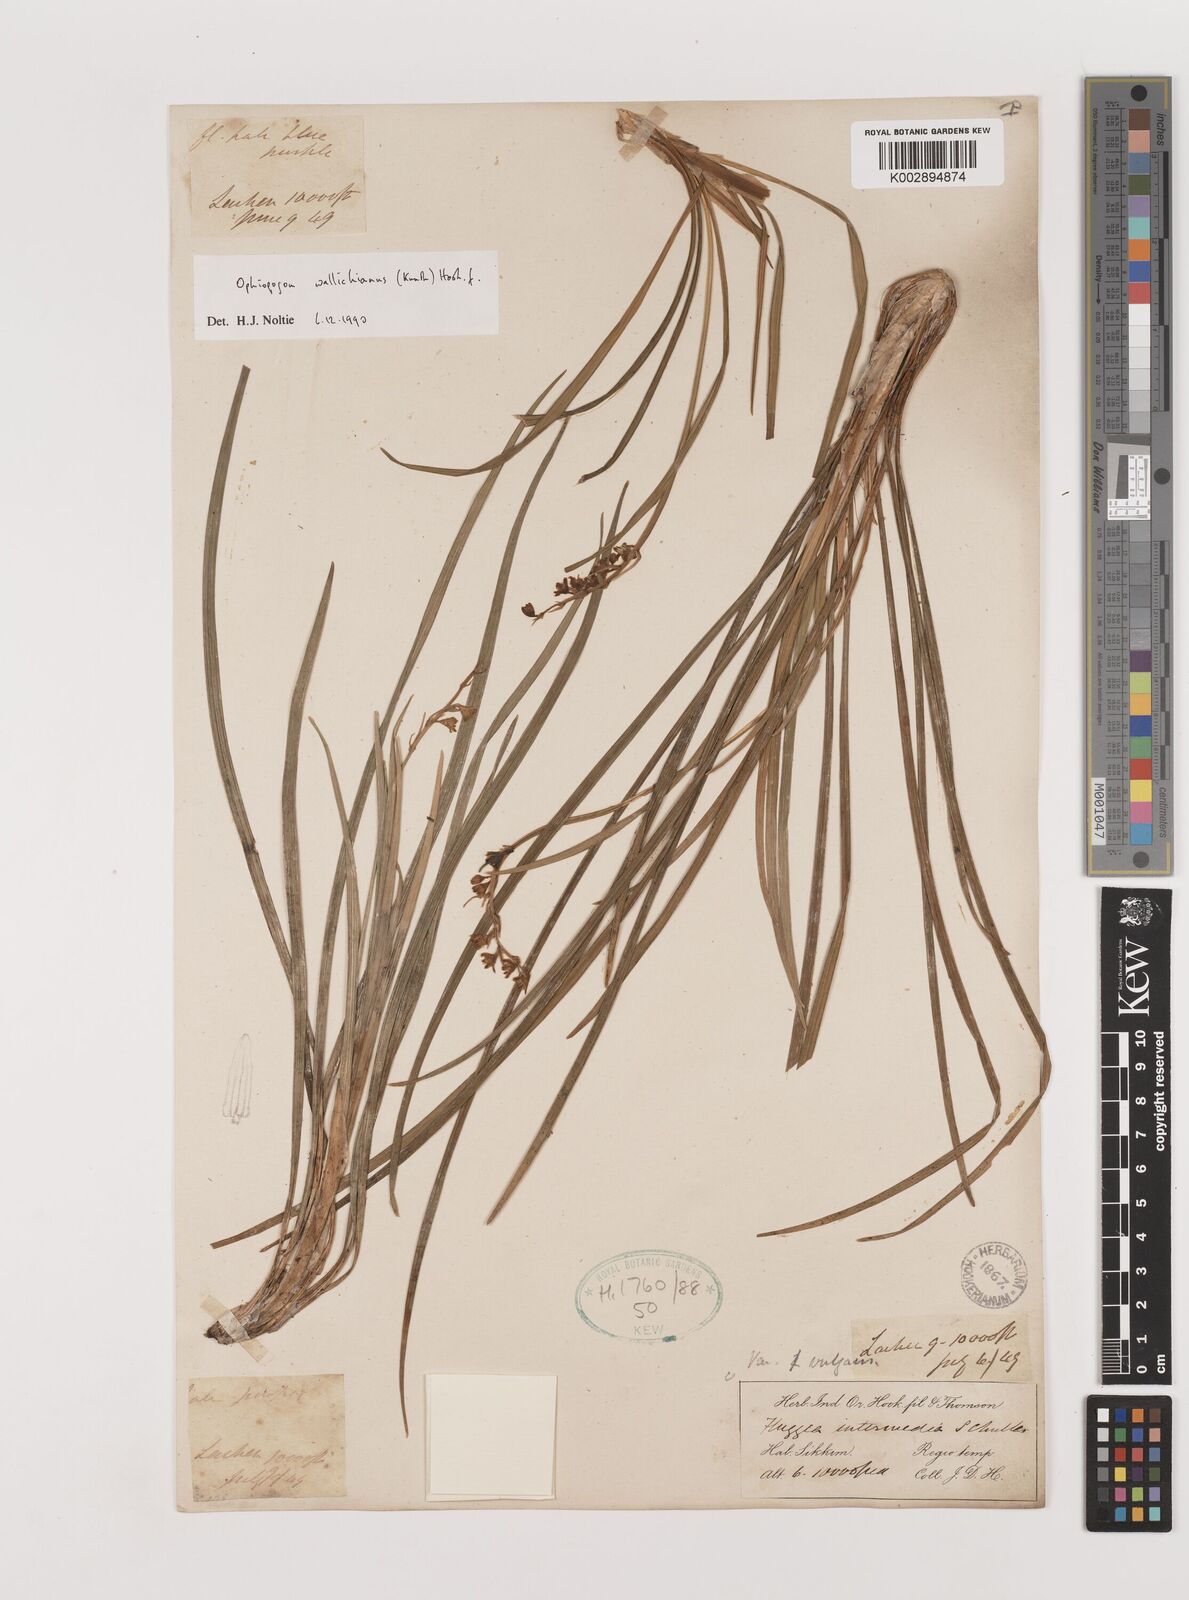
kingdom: Plantae
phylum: Tracheophyta
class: Liliopsida
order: Asparagales
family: Asparagaceae
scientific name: Asparagaceae
